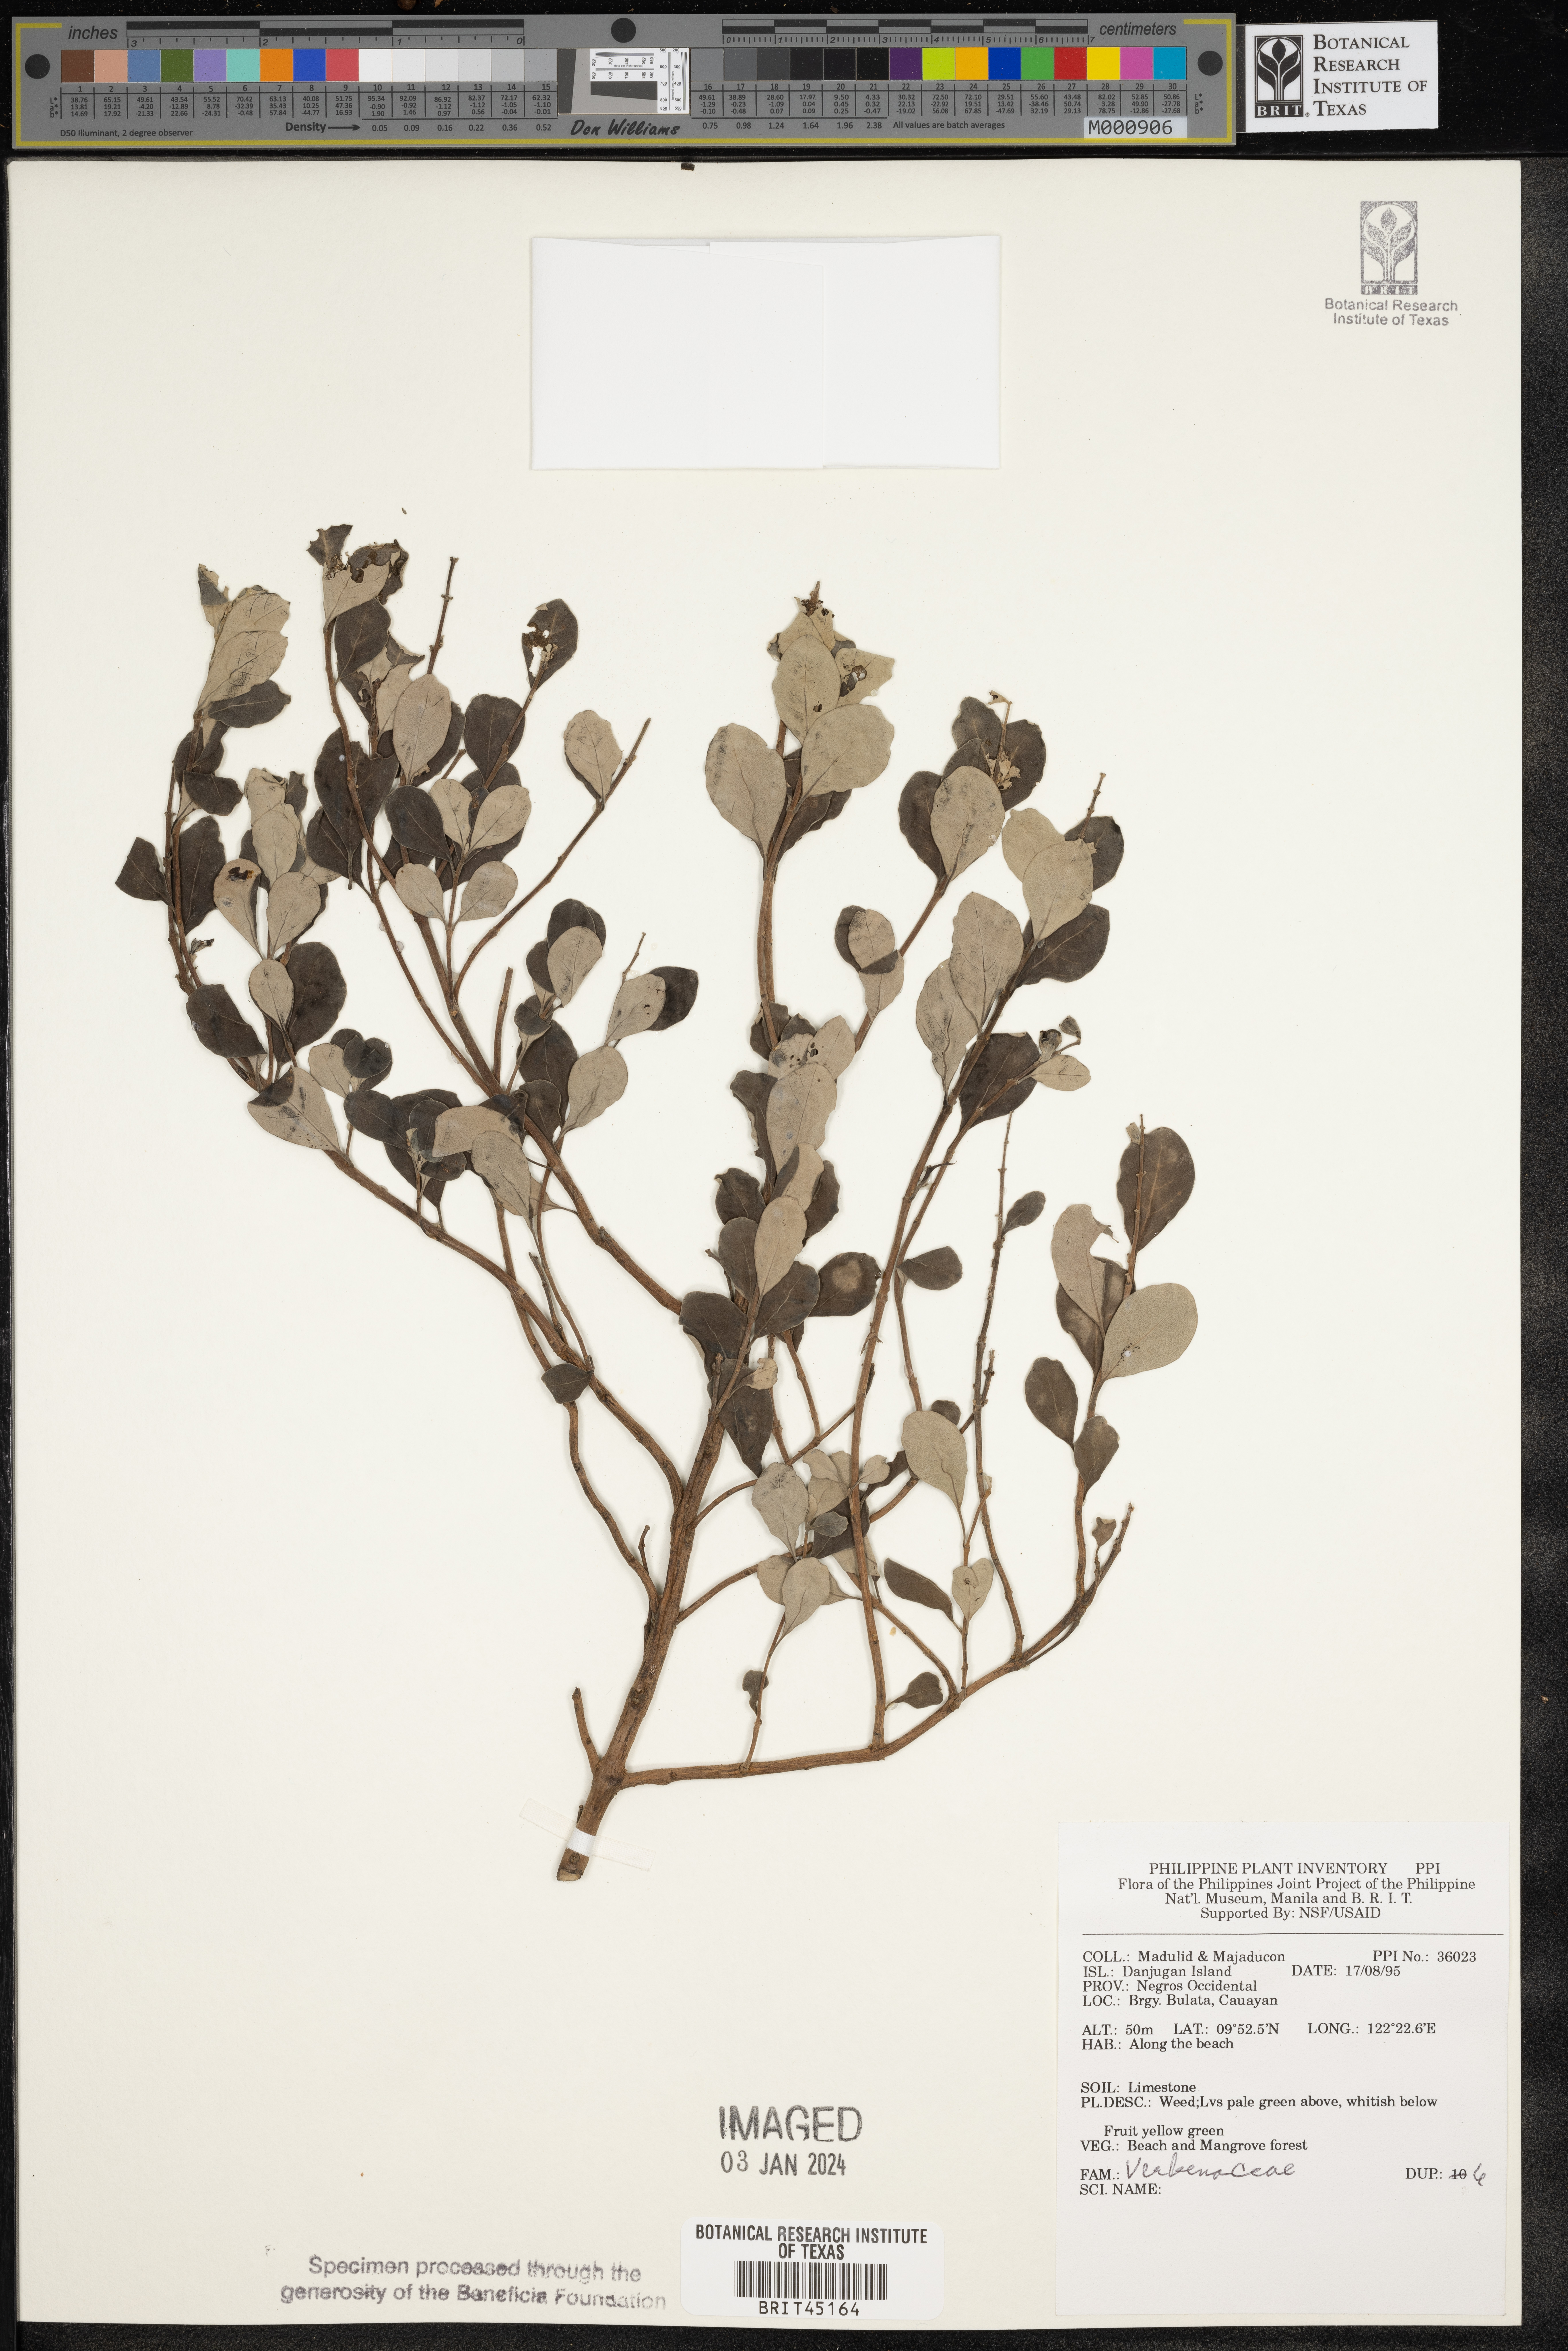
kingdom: Plantae
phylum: Tracheophyta
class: Magnoliopsida
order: Lamiales
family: Verbenaceae
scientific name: Verbenaceae
